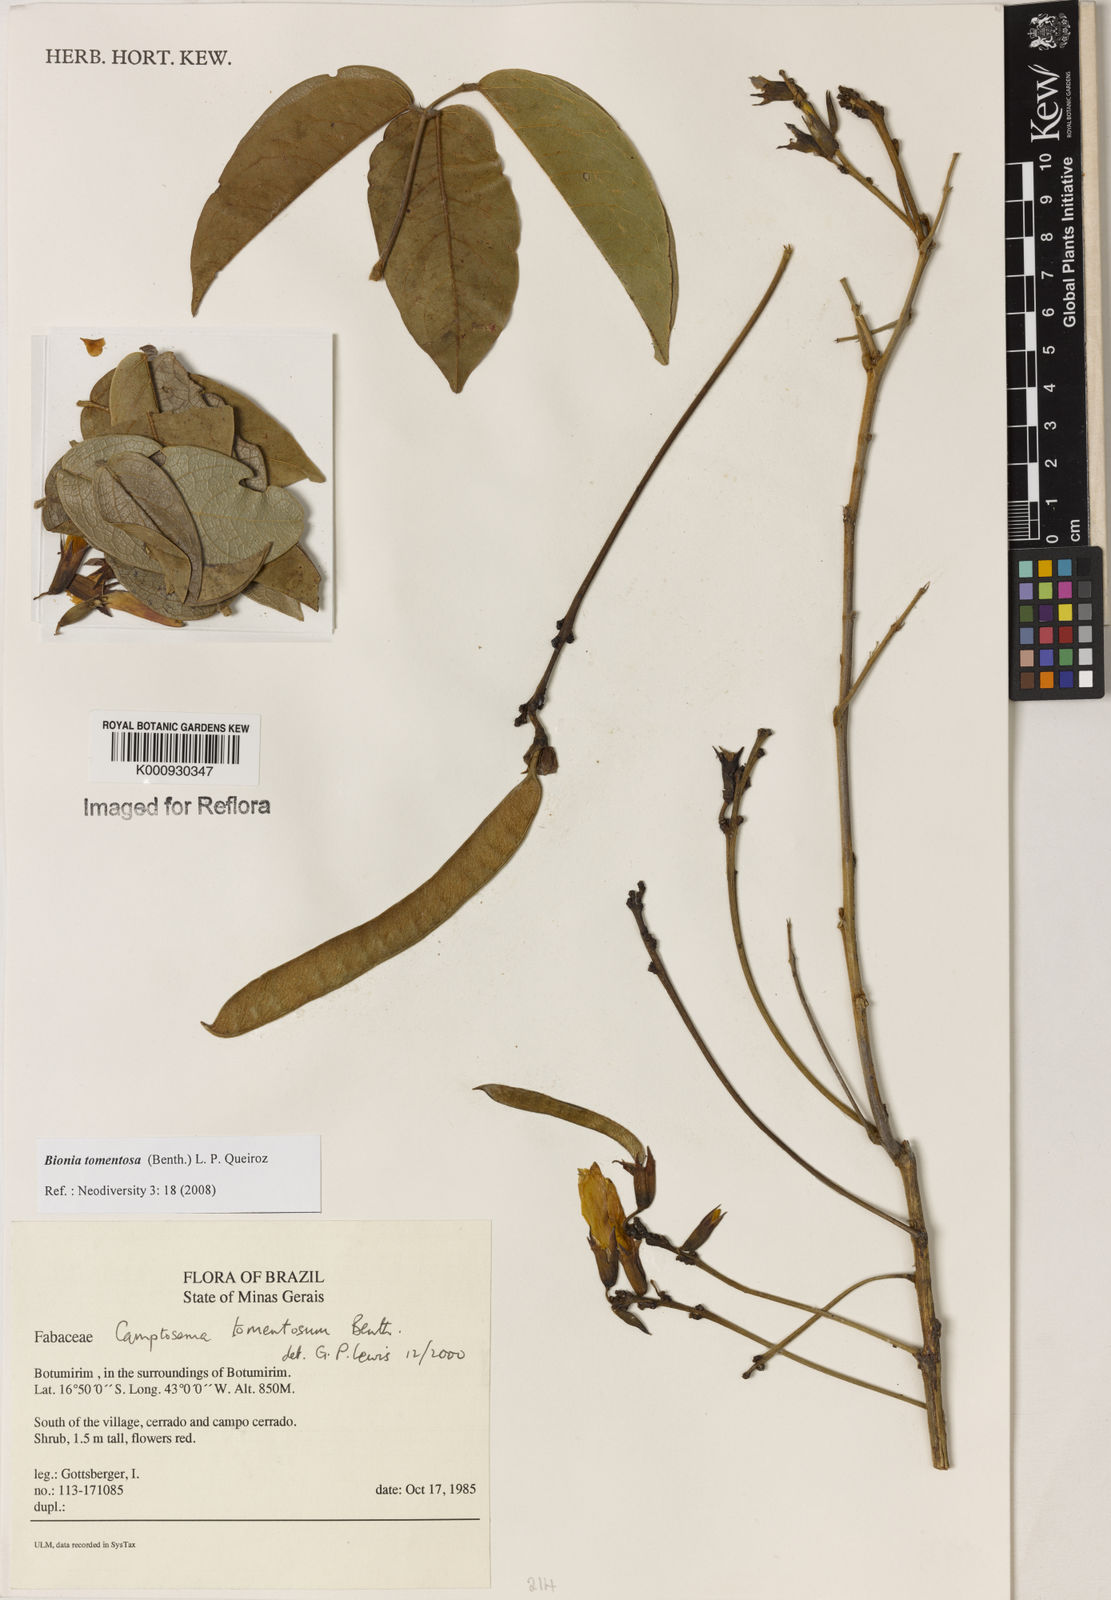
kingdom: Plantae
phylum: Tracheophyta
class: Magnoliopsida
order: Fabales
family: Fabaceae
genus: Camptosema
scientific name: Camptosema tomentosum
